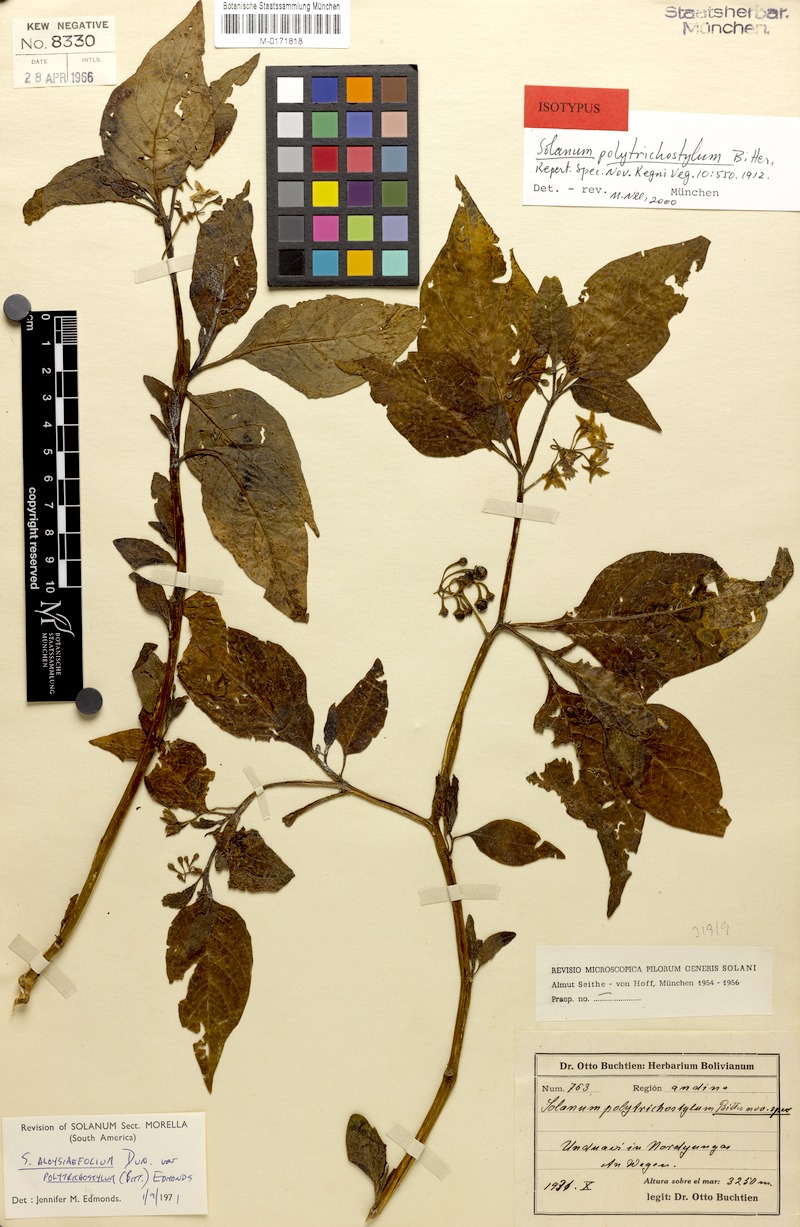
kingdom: Plantae
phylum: Tracheophyta
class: Magnoliopsida
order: Solanales
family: Solanaceae
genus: Solanum
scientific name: Solanum polytrichostylum
